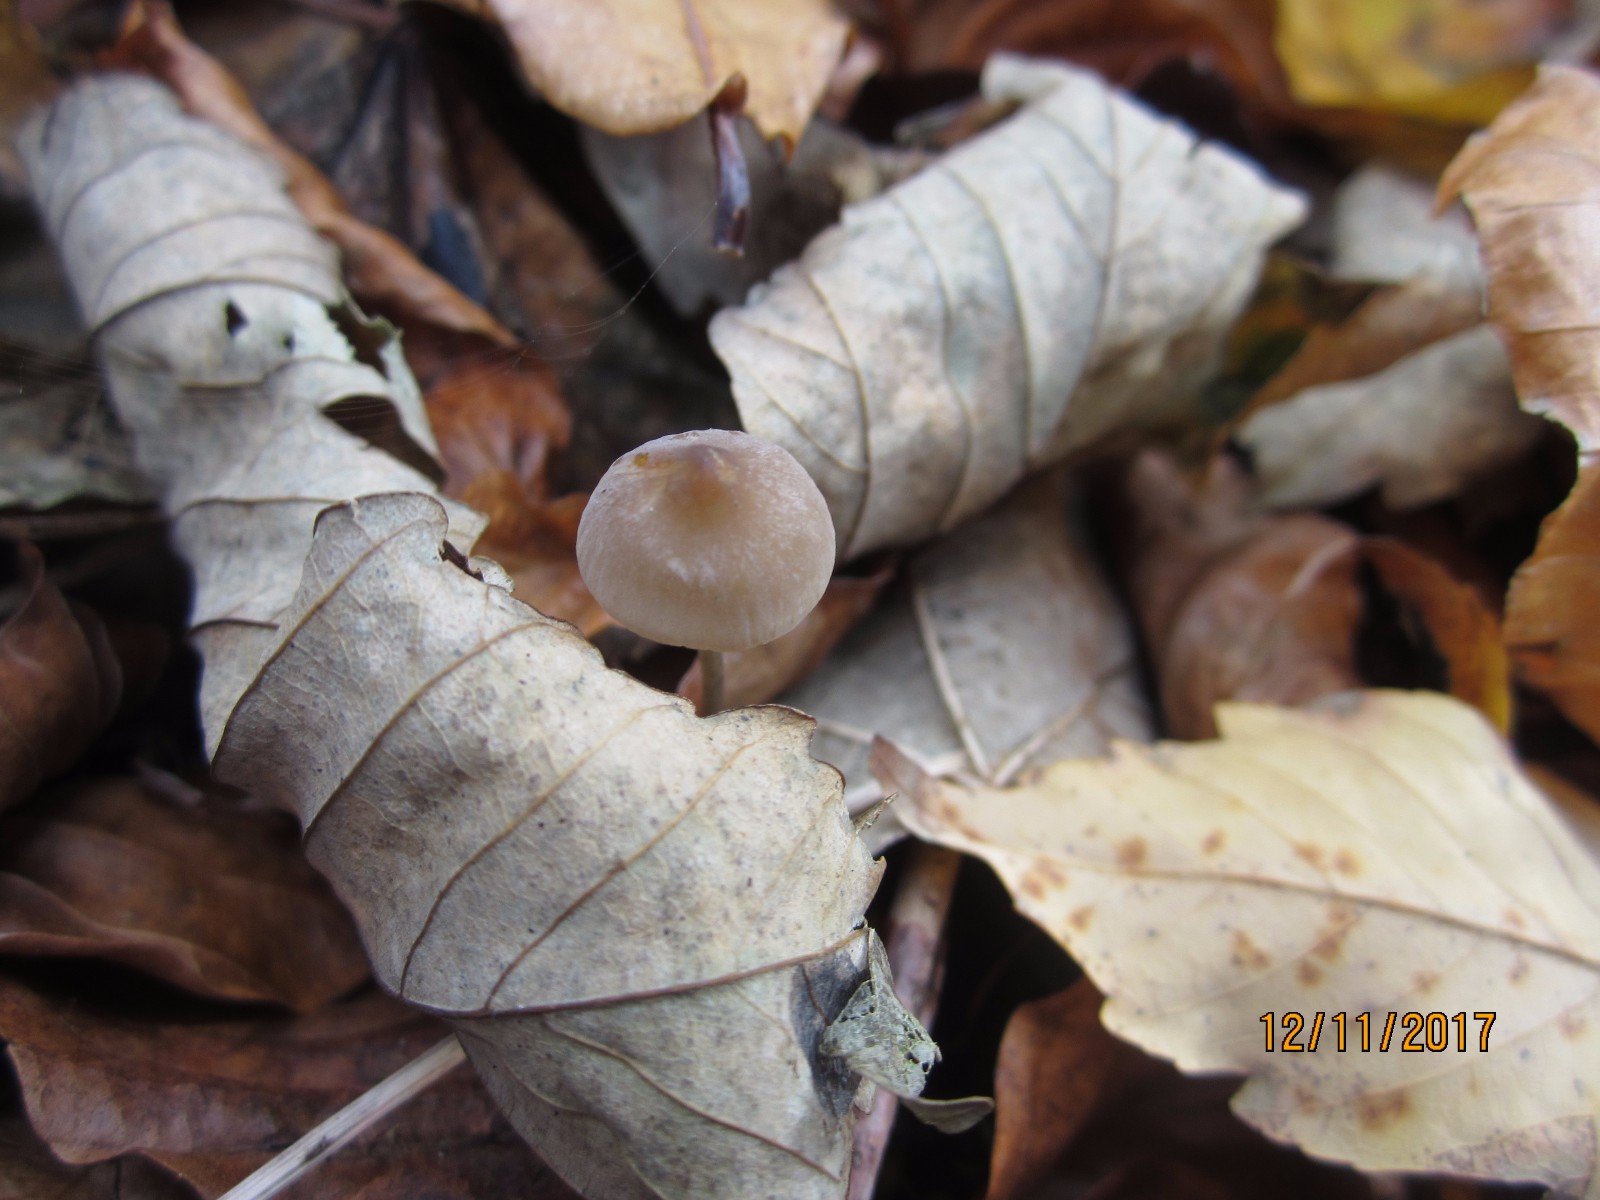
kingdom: Fungi
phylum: Basidiomycota
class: Agaricomycetes
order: Agaricales
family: Mycenaceae
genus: Mycena
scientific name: Mycena crocata
